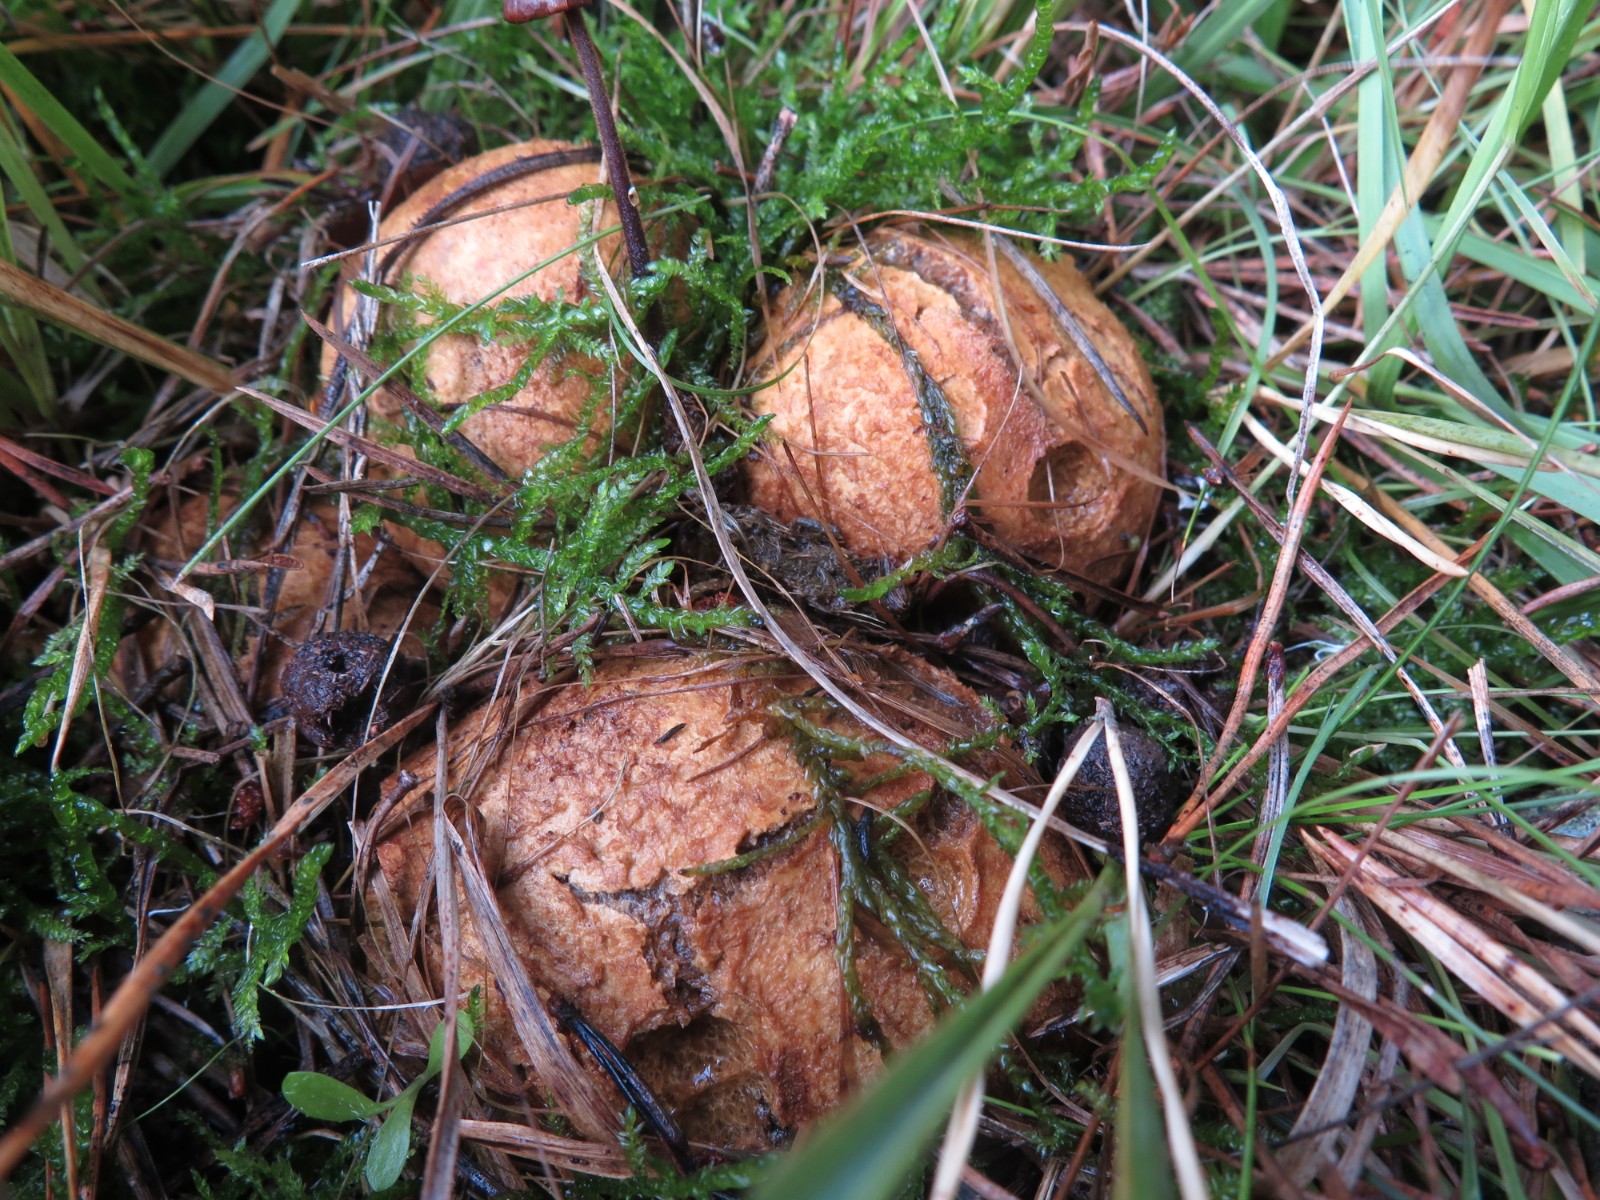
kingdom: Fungi
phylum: Basidiomycota
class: Agaricomycetes
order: Boletales
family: Rhizopogonaceae
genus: Rhizopogon
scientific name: Rhizopogon obtextus
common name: gul skægtrøffel
